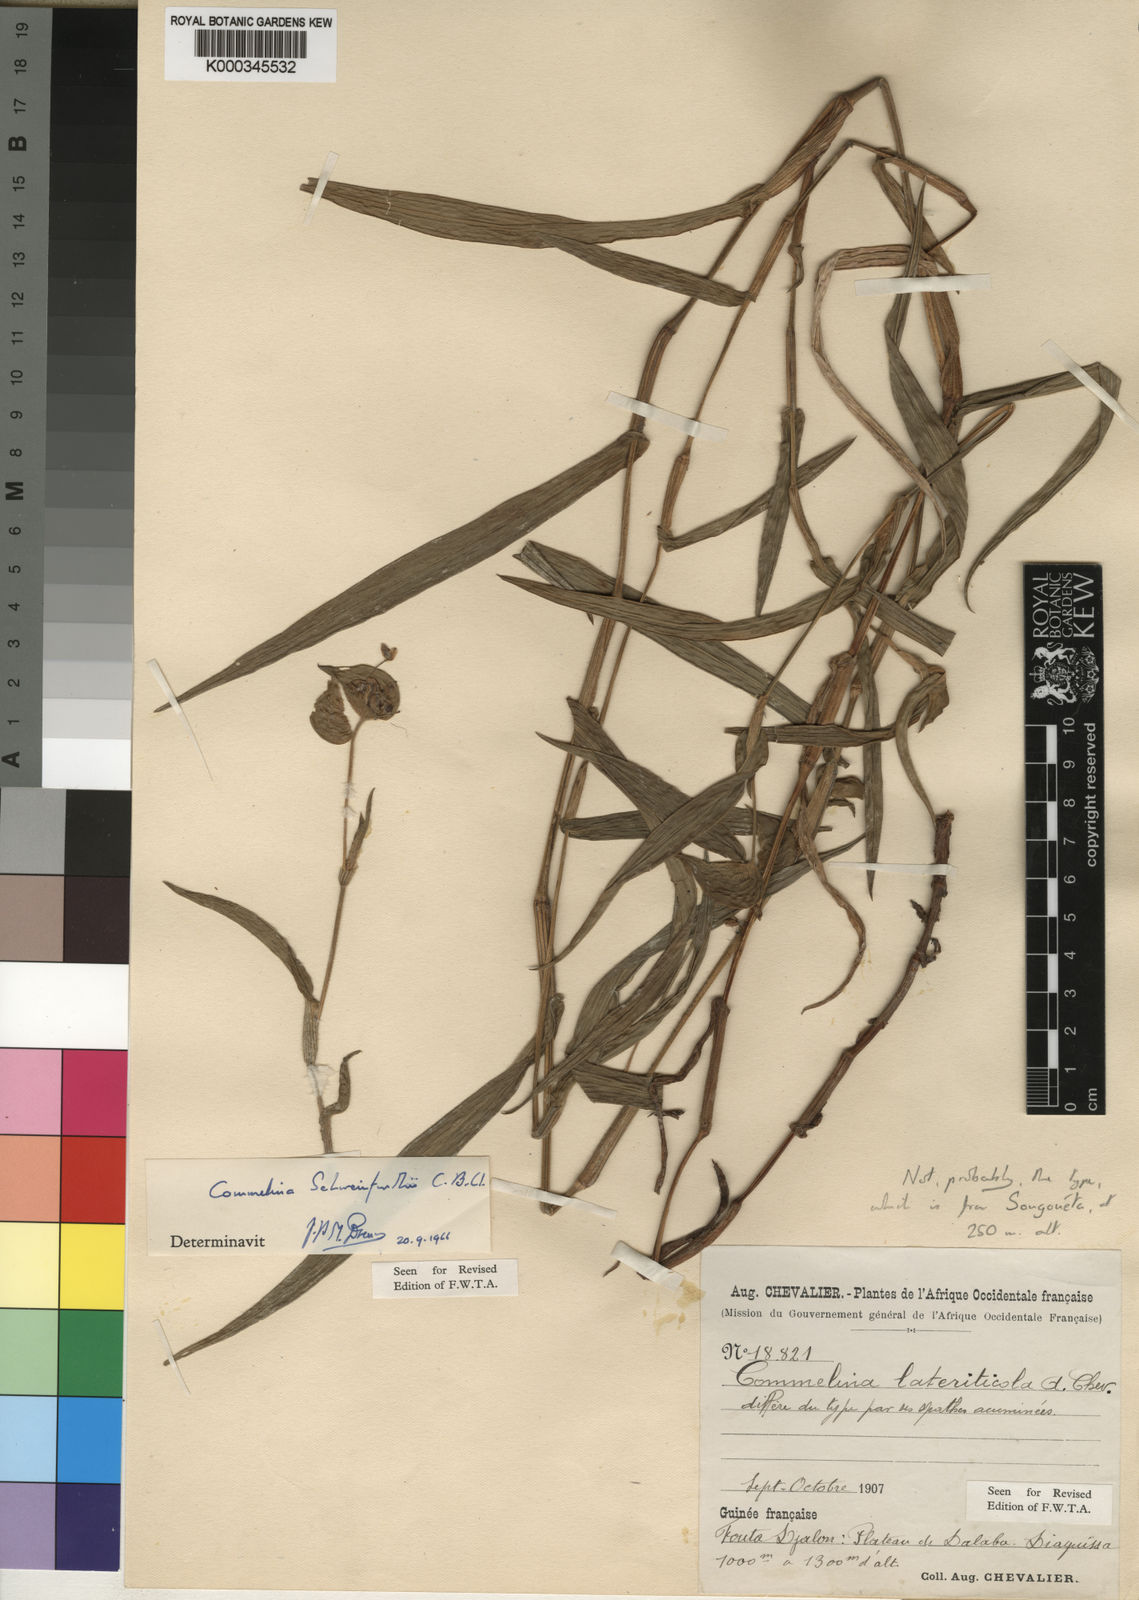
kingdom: Plantae
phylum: Tracheophyta
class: Liliopsida
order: Commelinales
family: Commelinaceae
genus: Commelina
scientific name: Commelina schweinfurthii
